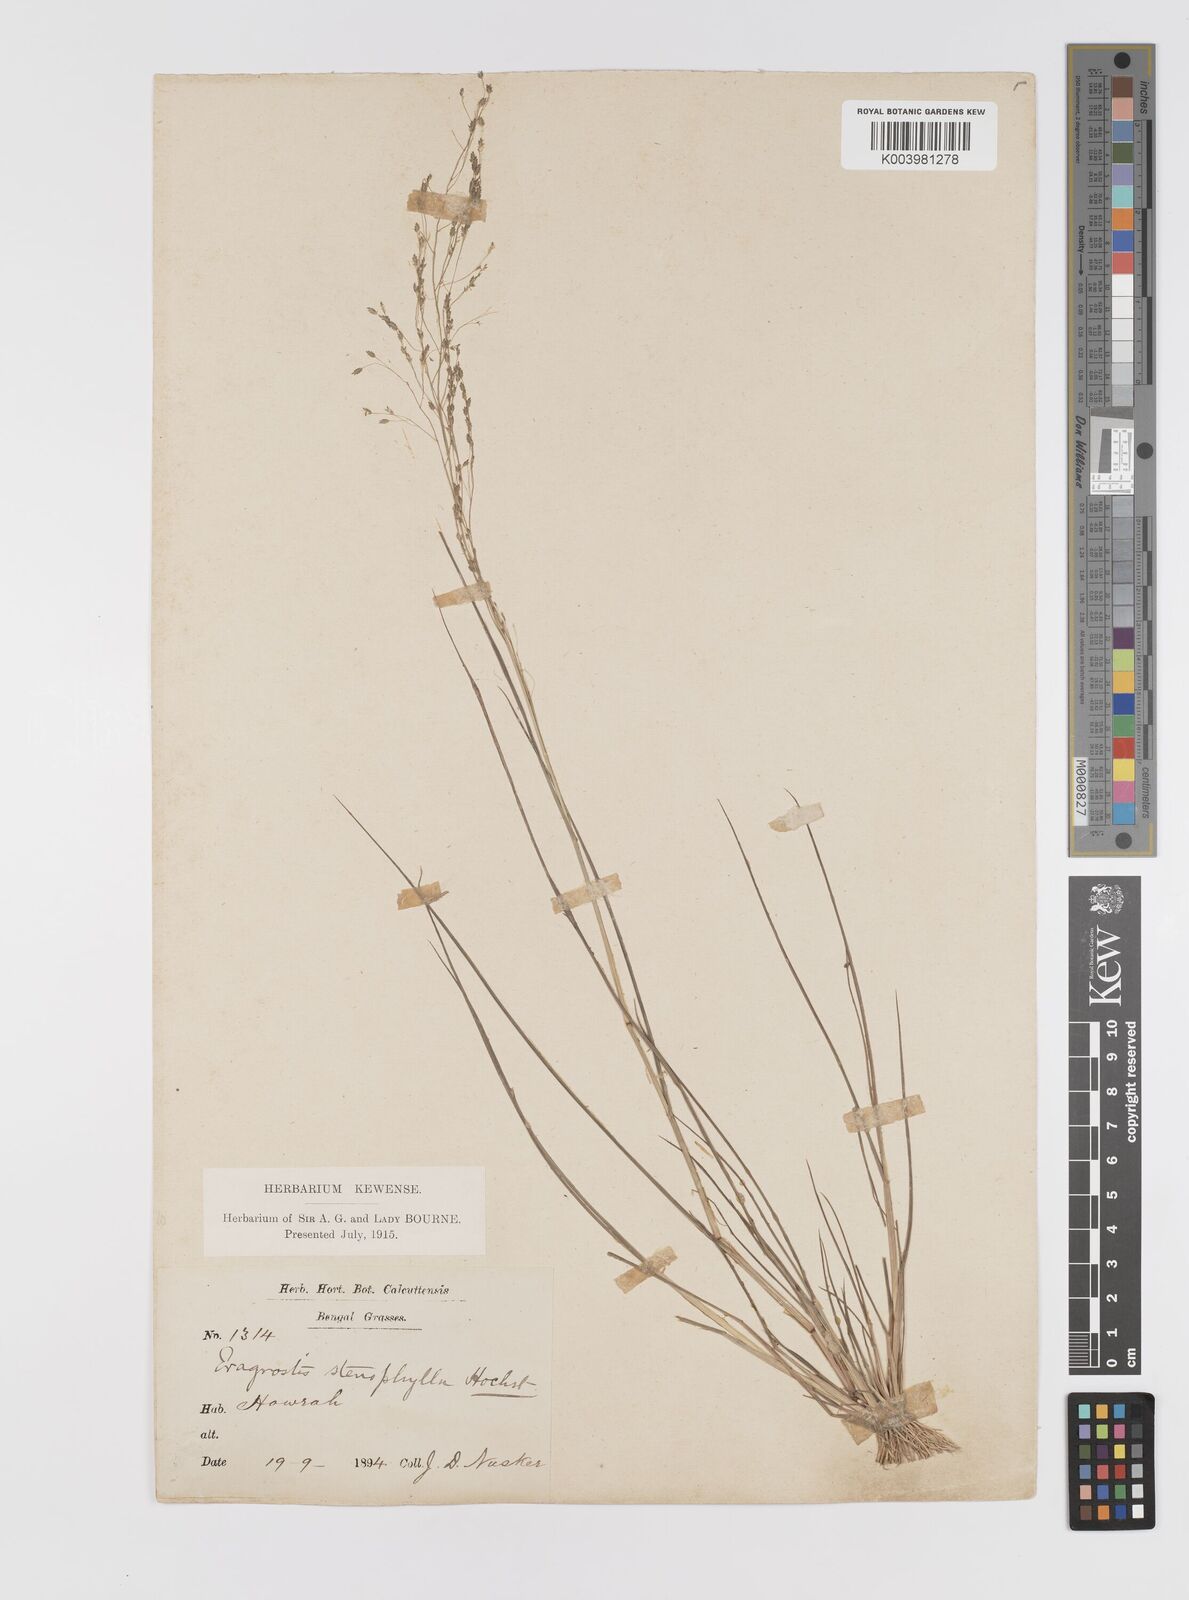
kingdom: Plantae
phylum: Tracheophyta
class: Liliopsida
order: Poales
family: Poaceae
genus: Eragrostis
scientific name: Eragrostis gangetica
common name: Slimflower lovegrass
